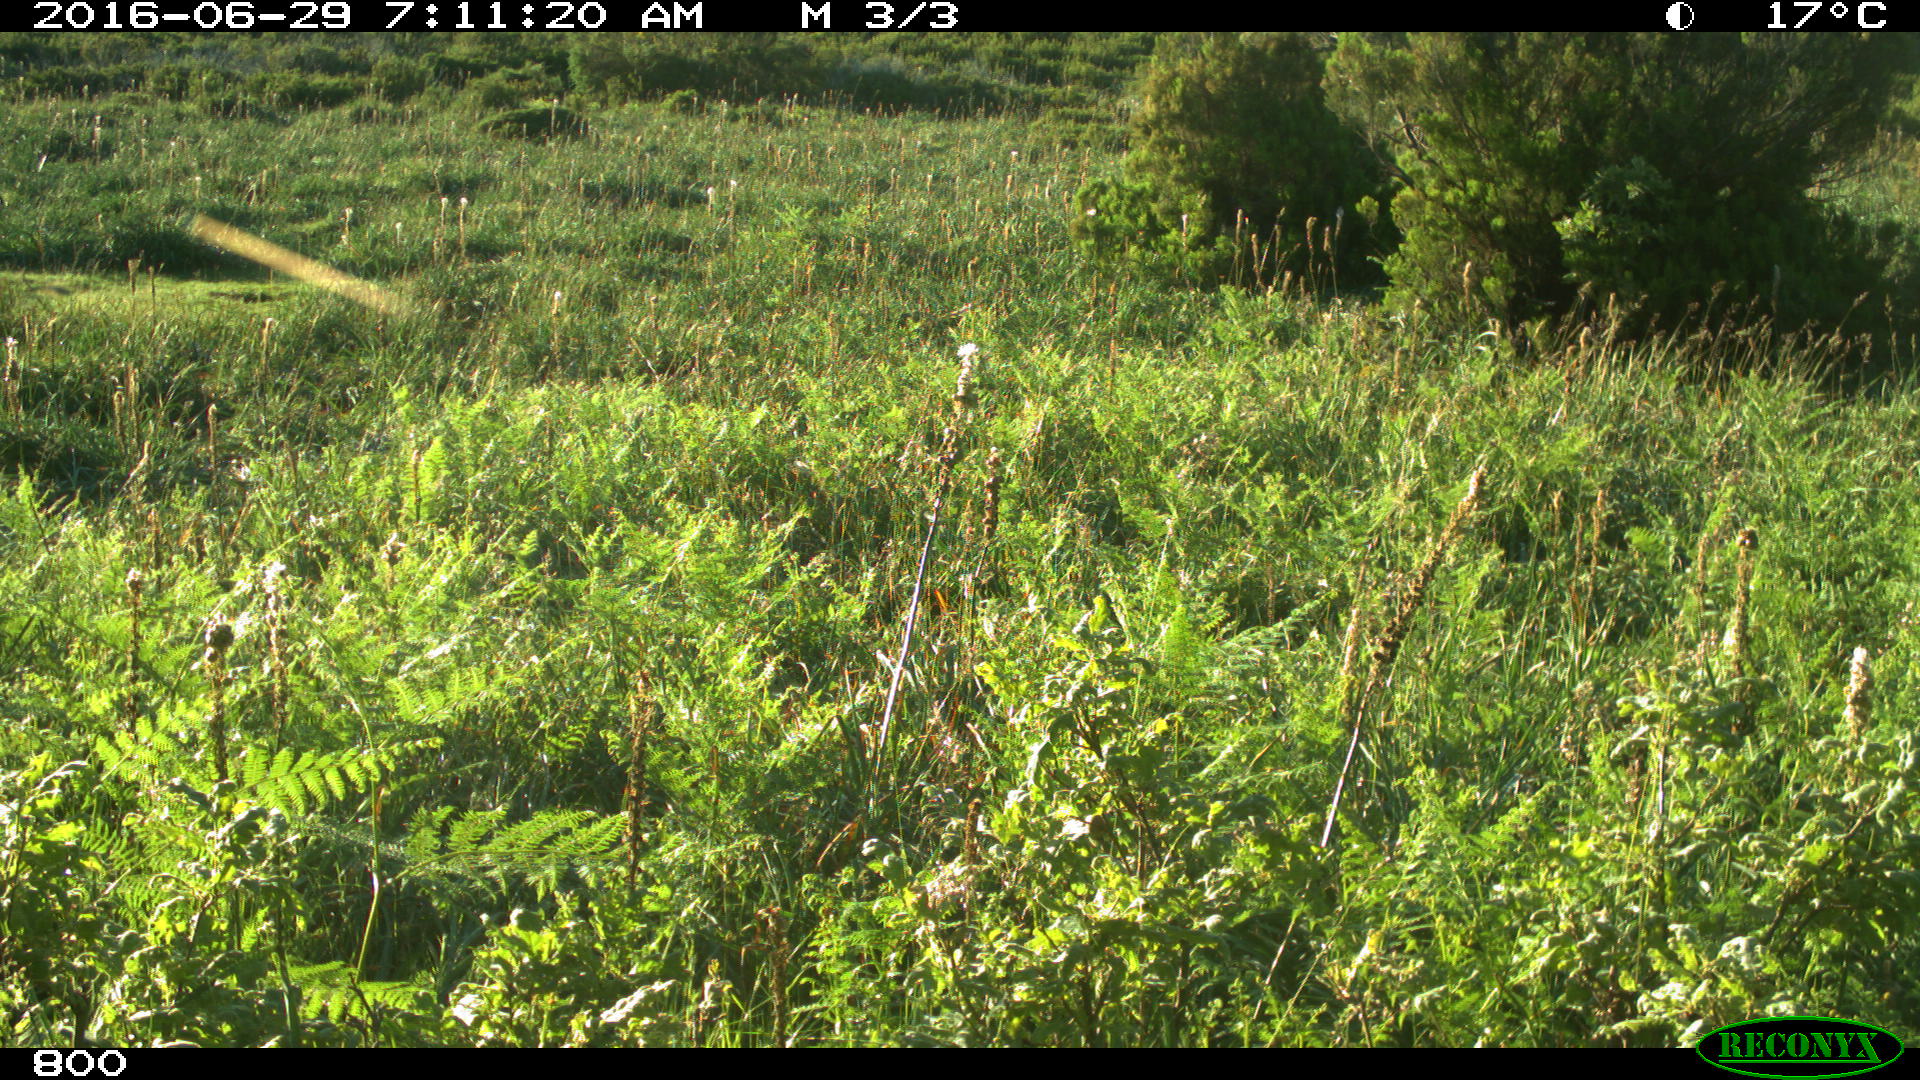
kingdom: Animalia
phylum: Chordata
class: Mammalia
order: Artiodactyla
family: Bovidae
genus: Bos
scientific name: Bos taurus
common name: Domesticated cattle
